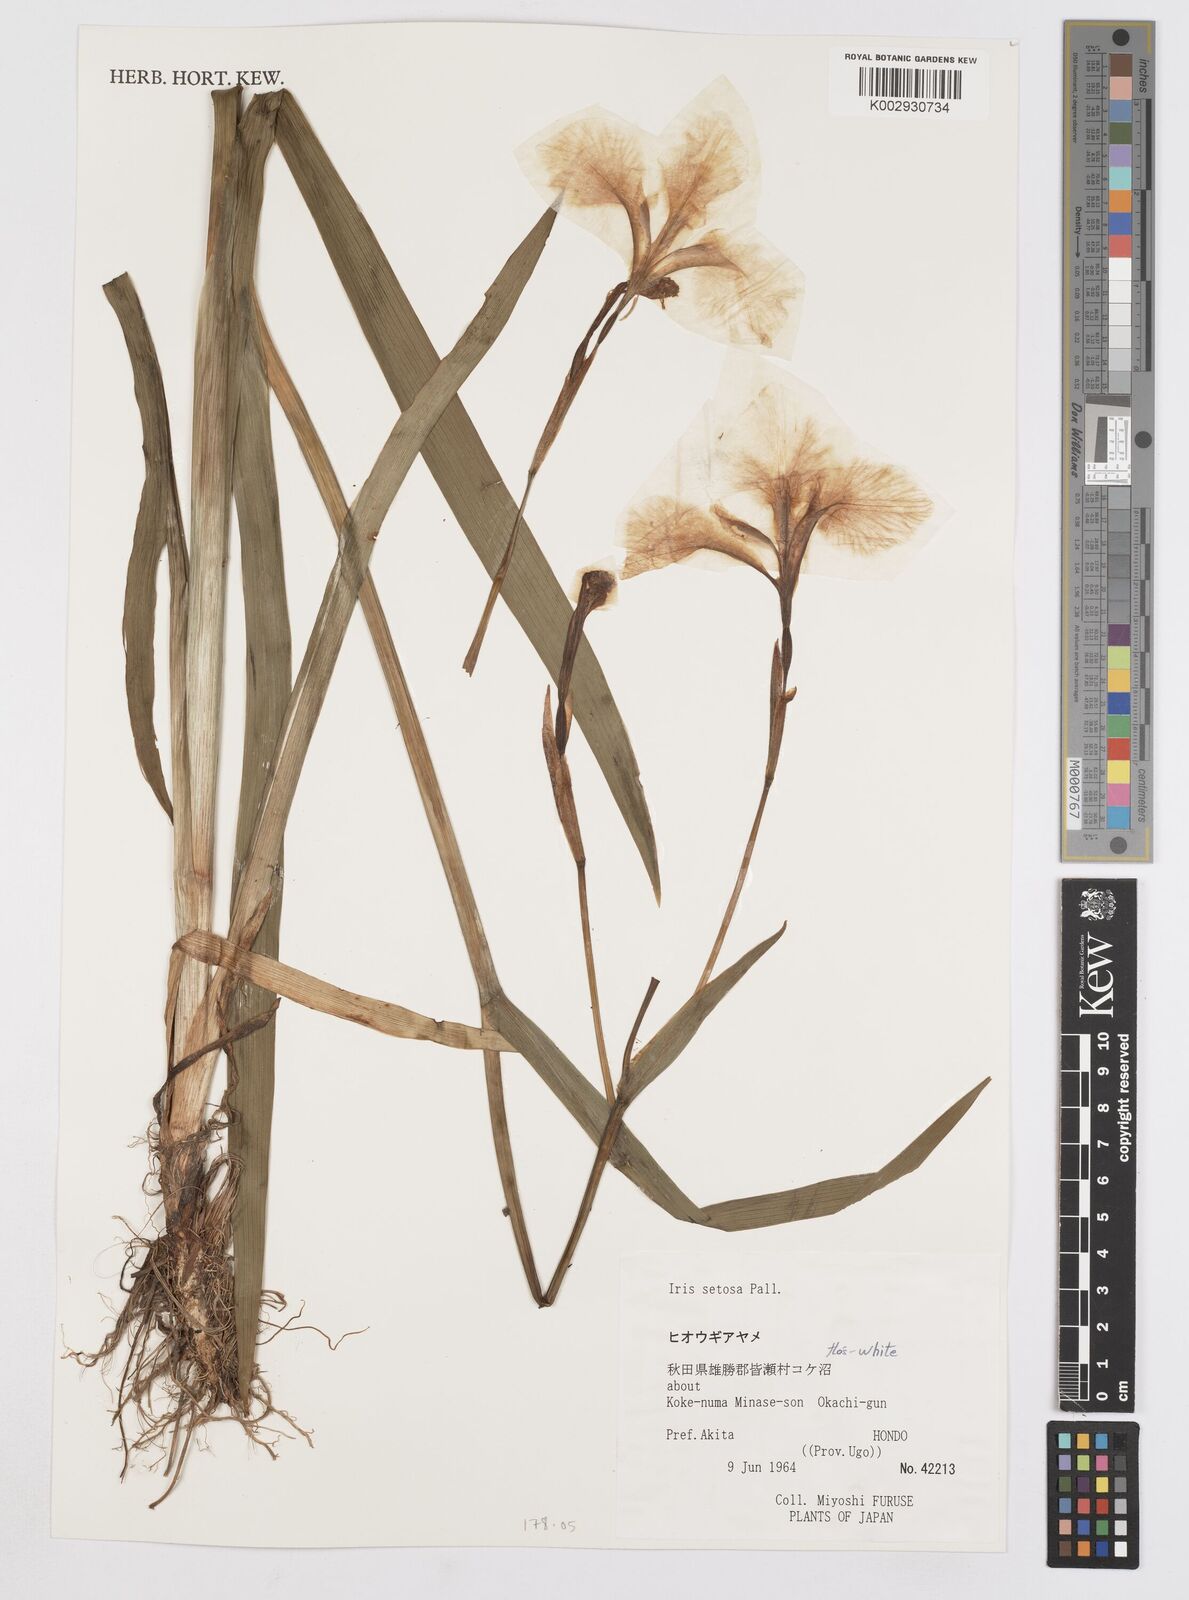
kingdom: Plantae
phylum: Tracheophyta
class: Liliopsida
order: Asparagales
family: Iridaceae
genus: Iris
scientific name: Iris setosa
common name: Arctic blue flag
